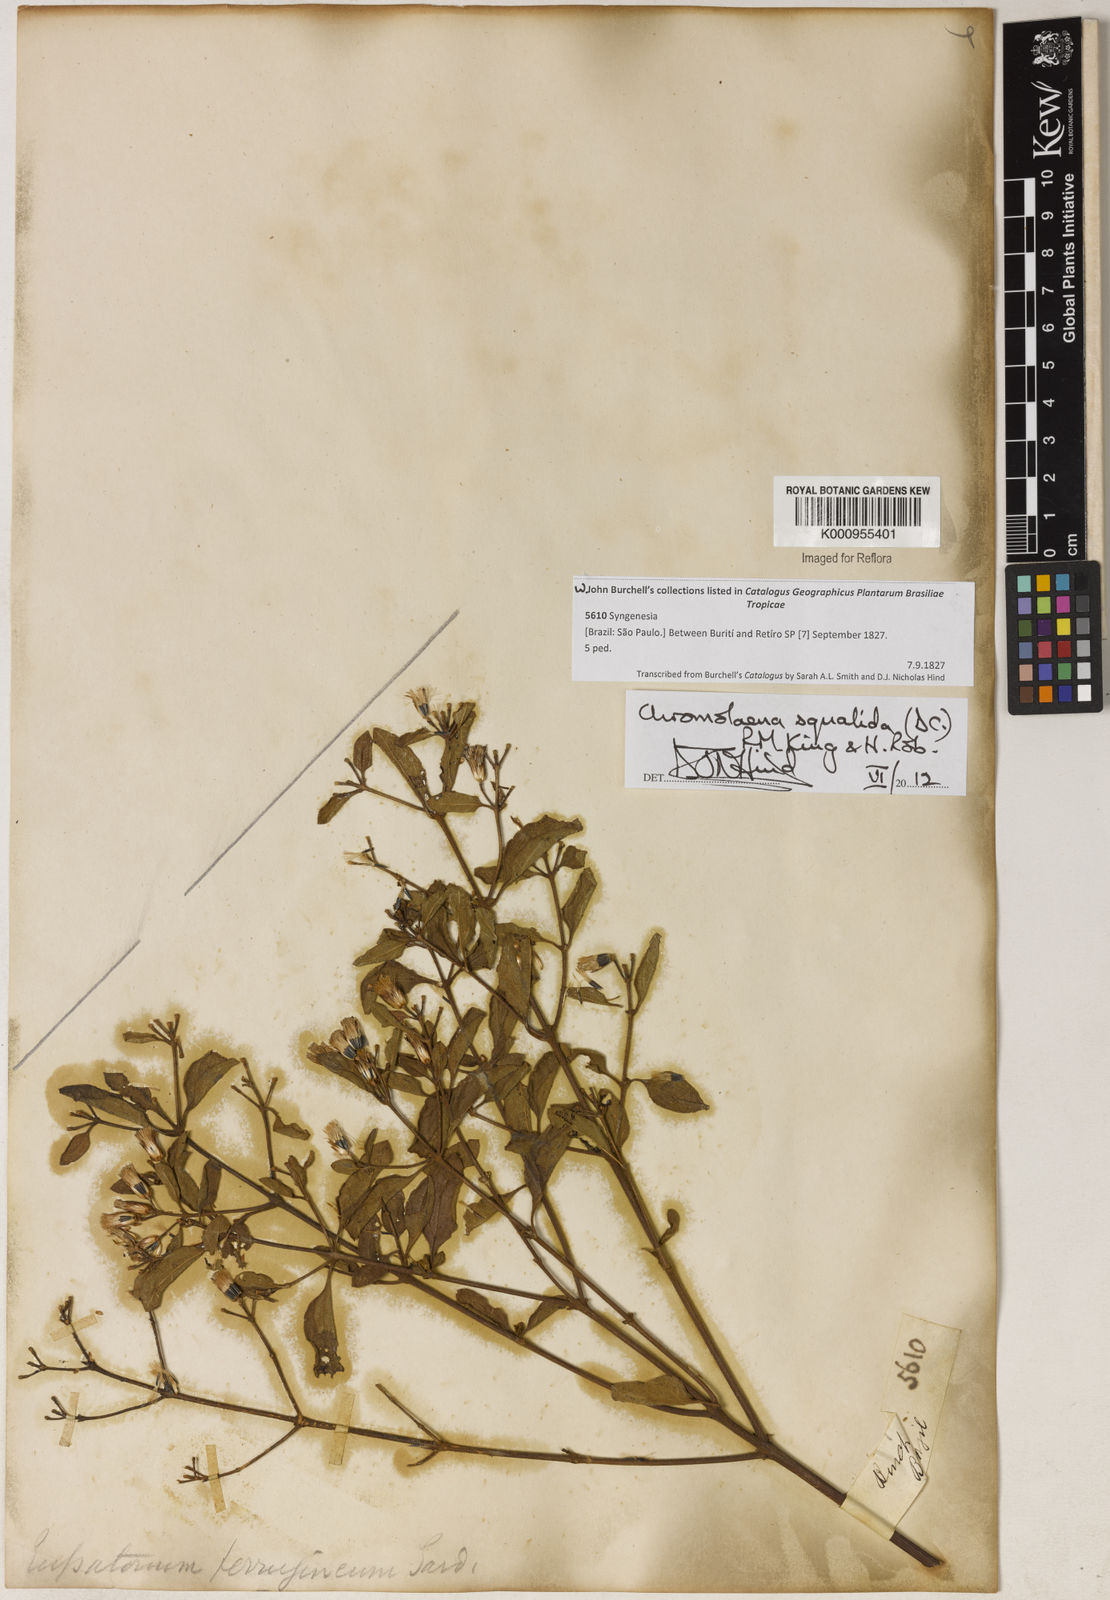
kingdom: Plantae
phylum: Tracheophyta
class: Magnoliopsida
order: Asterales
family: Asteraceae
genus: Chromolaena
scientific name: Chromolaena squalida
